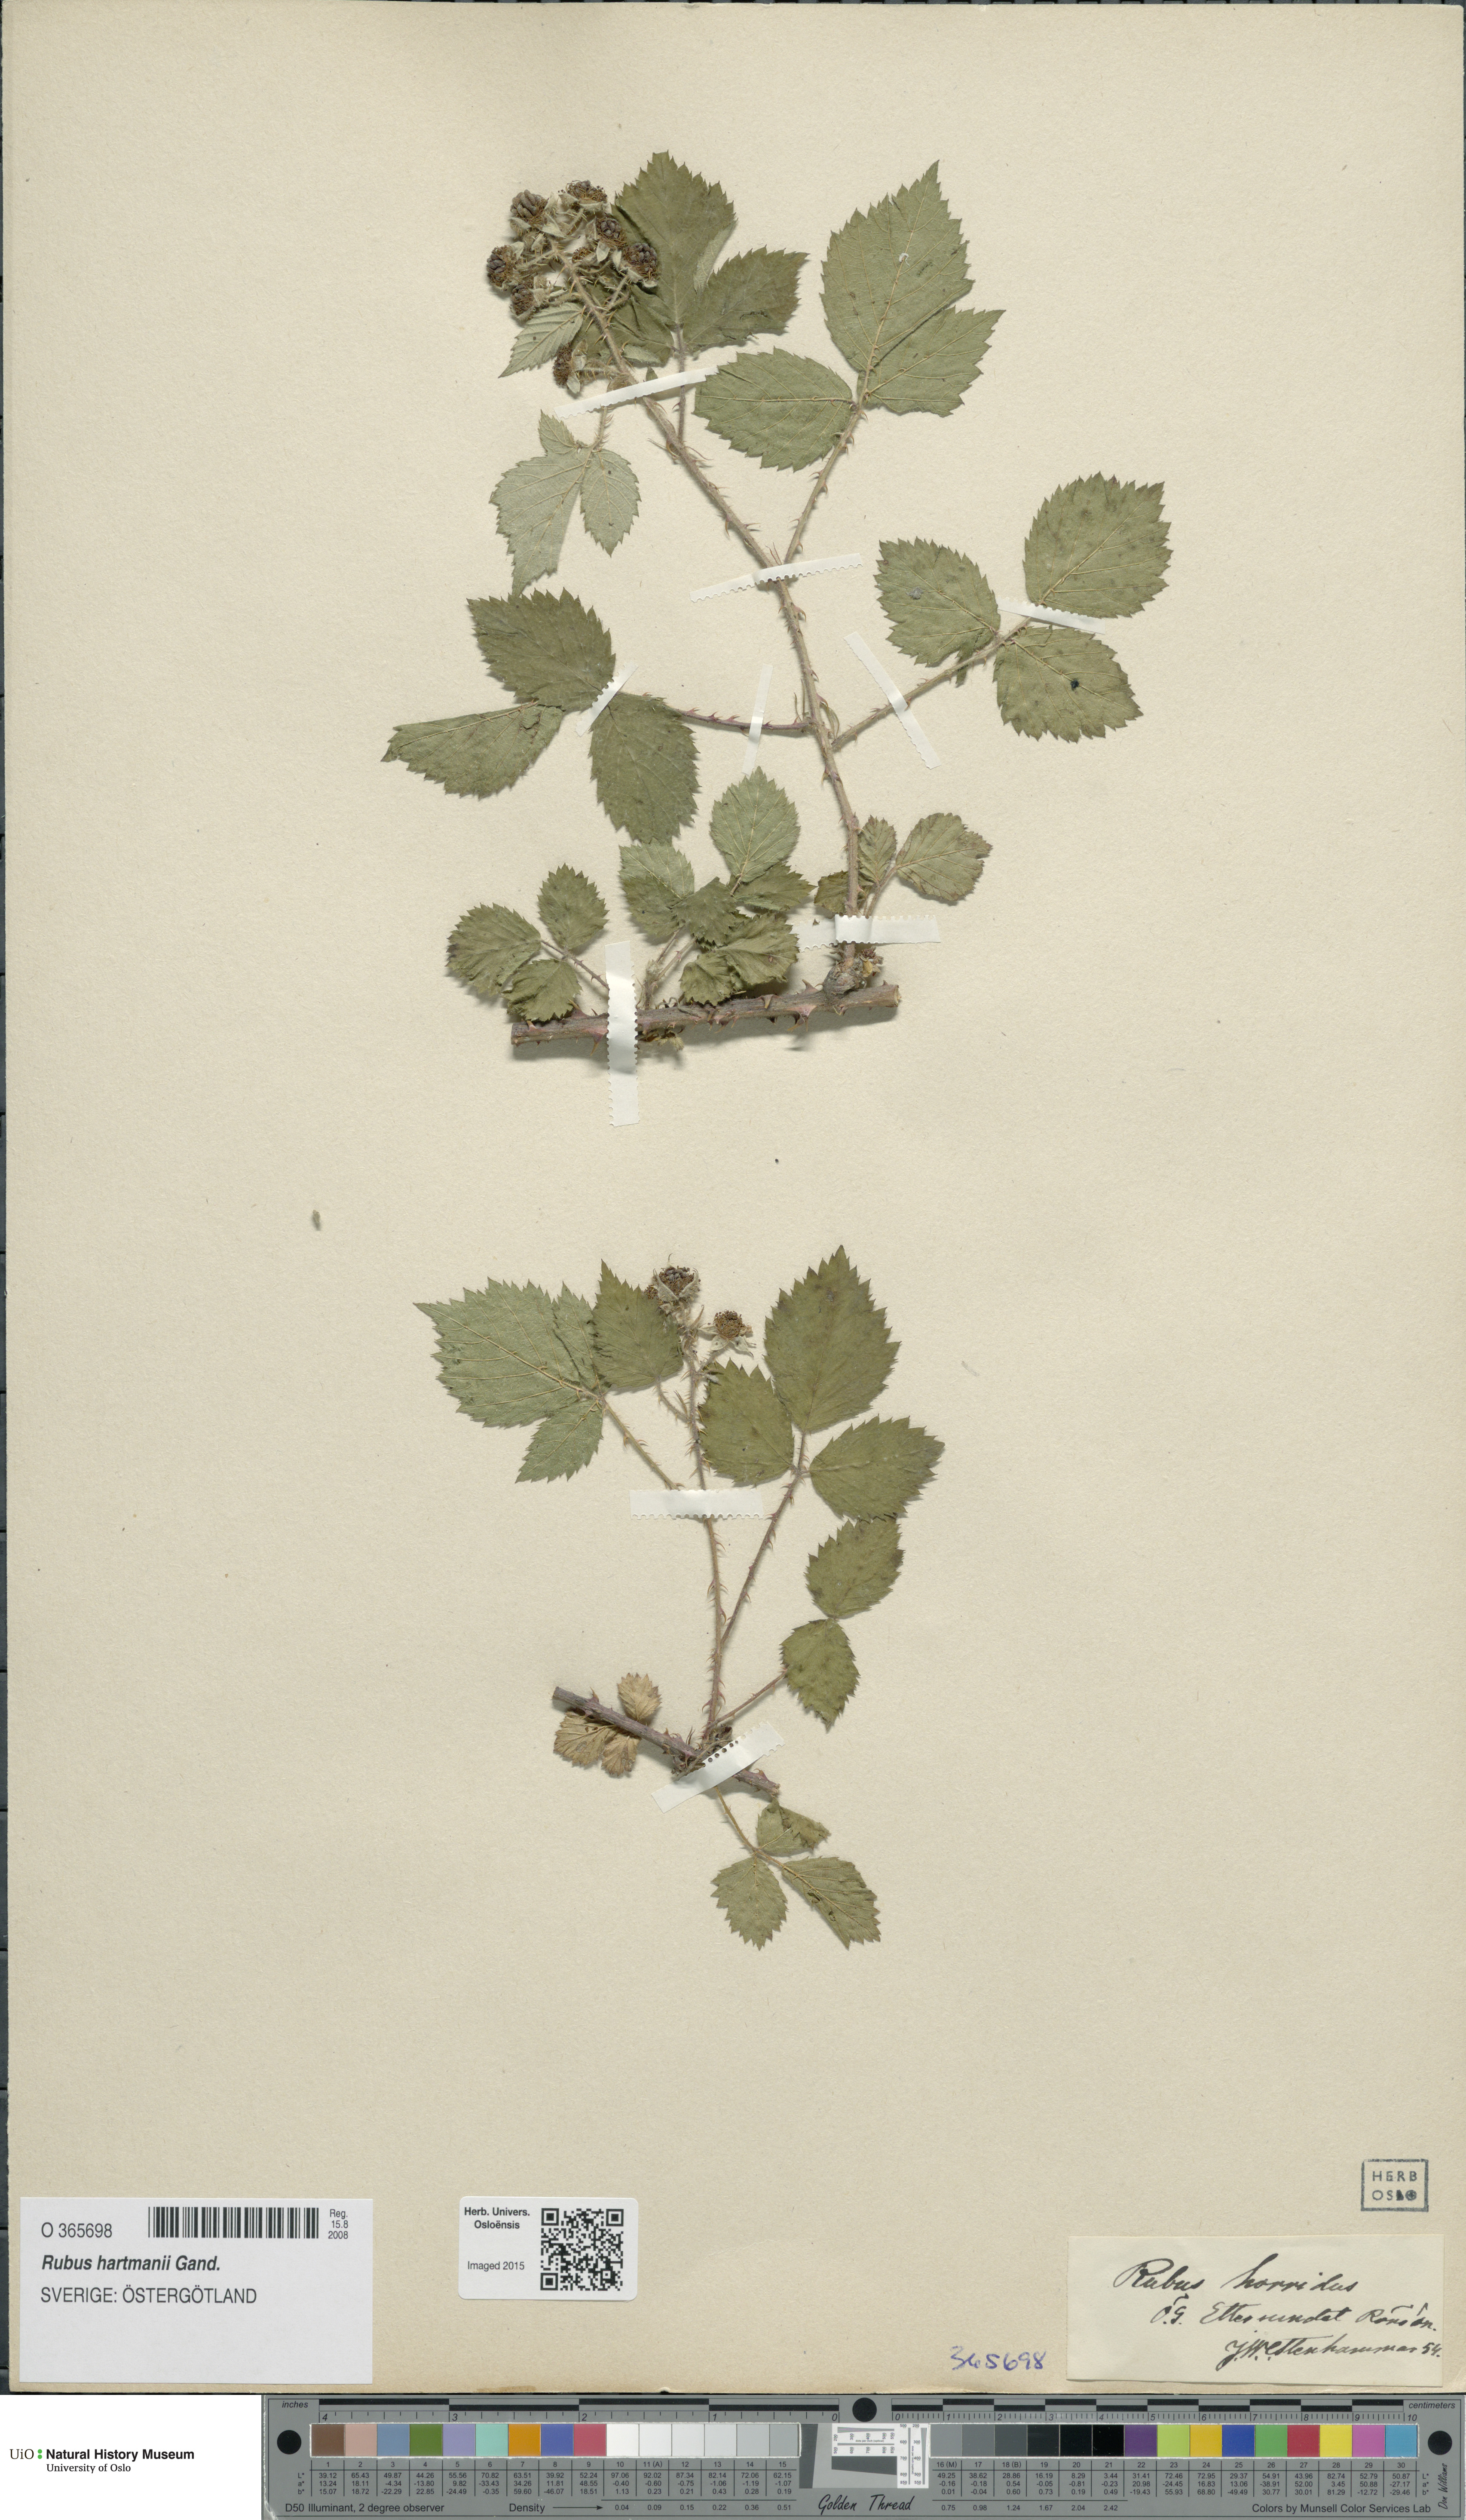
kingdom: Plantae
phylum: Tracheophyta
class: Magnoliopsida
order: Rosales
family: Rosaceae
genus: Rubus
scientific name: Rubus hartmanii
